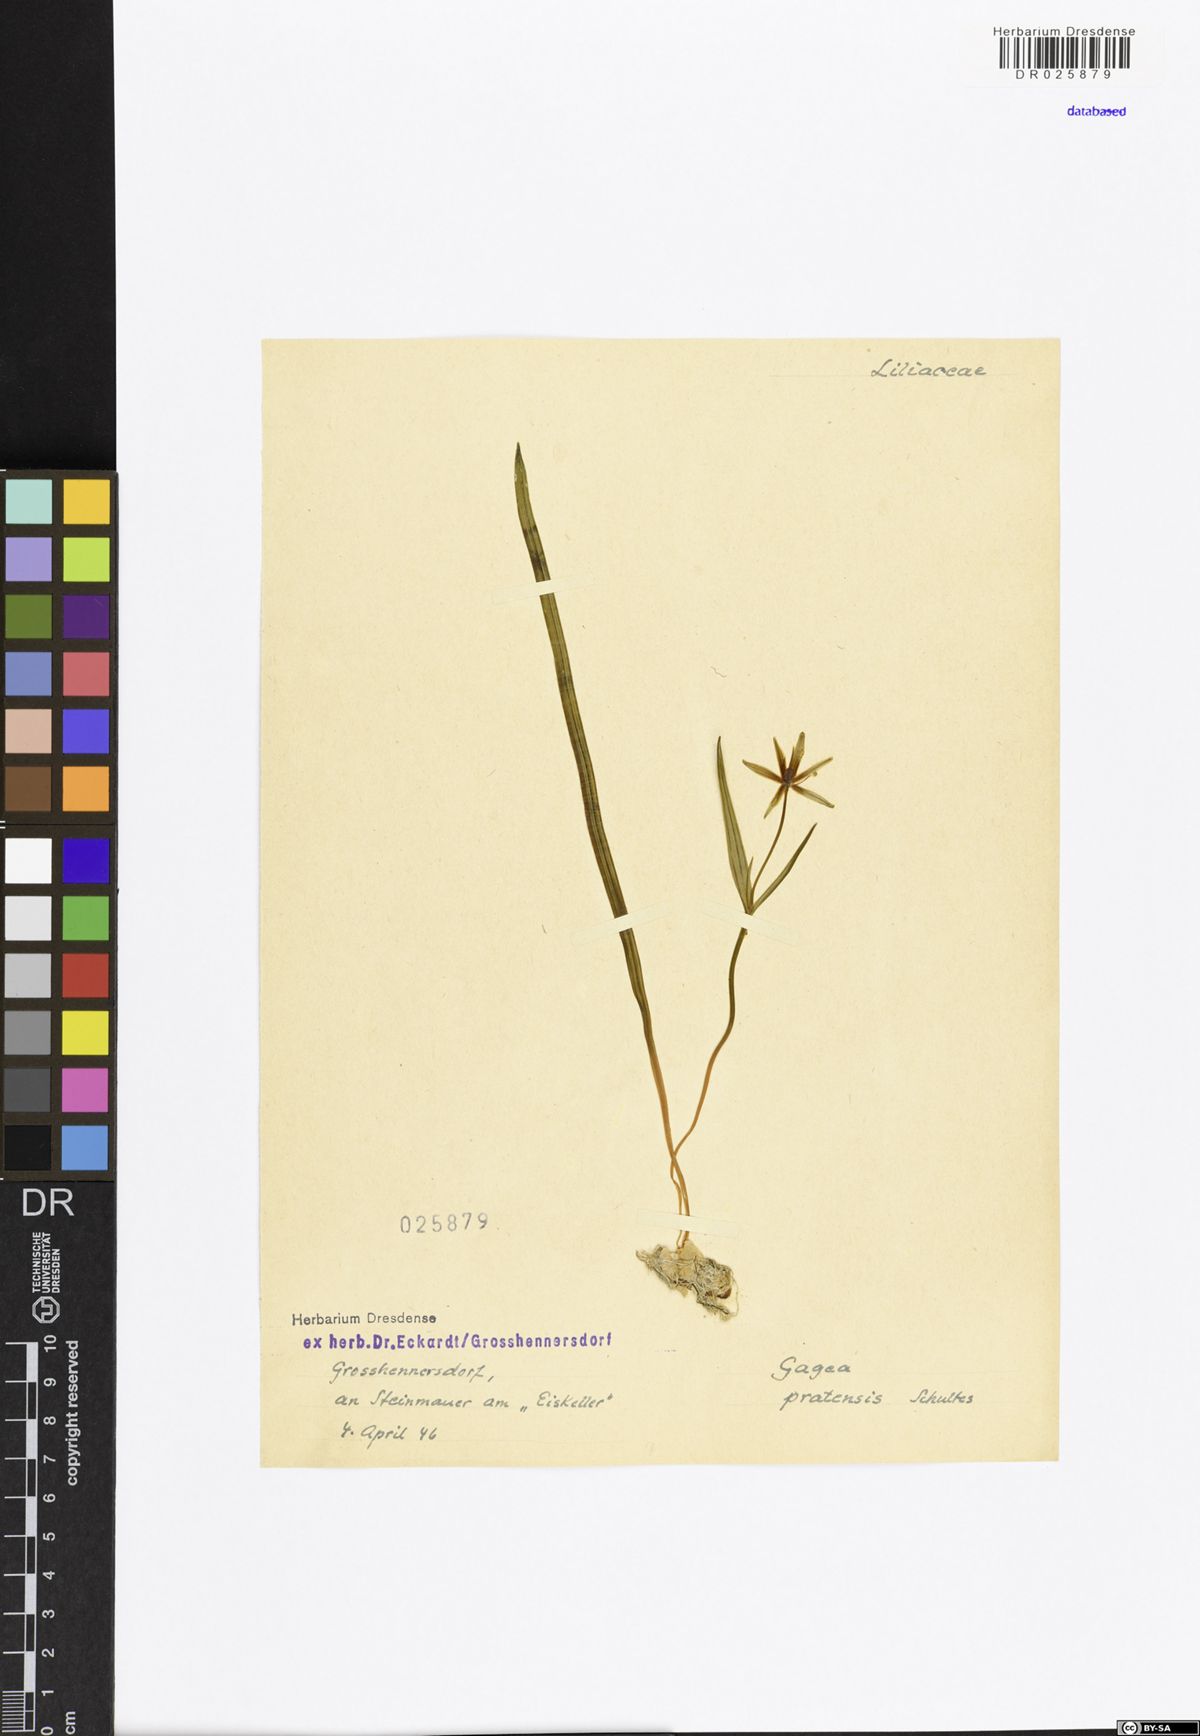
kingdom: Plantae
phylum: Tracheophyta
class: Liliopsida
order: Liliales
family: Liliaceae
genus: Gagea
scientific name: Gagea pratensis
